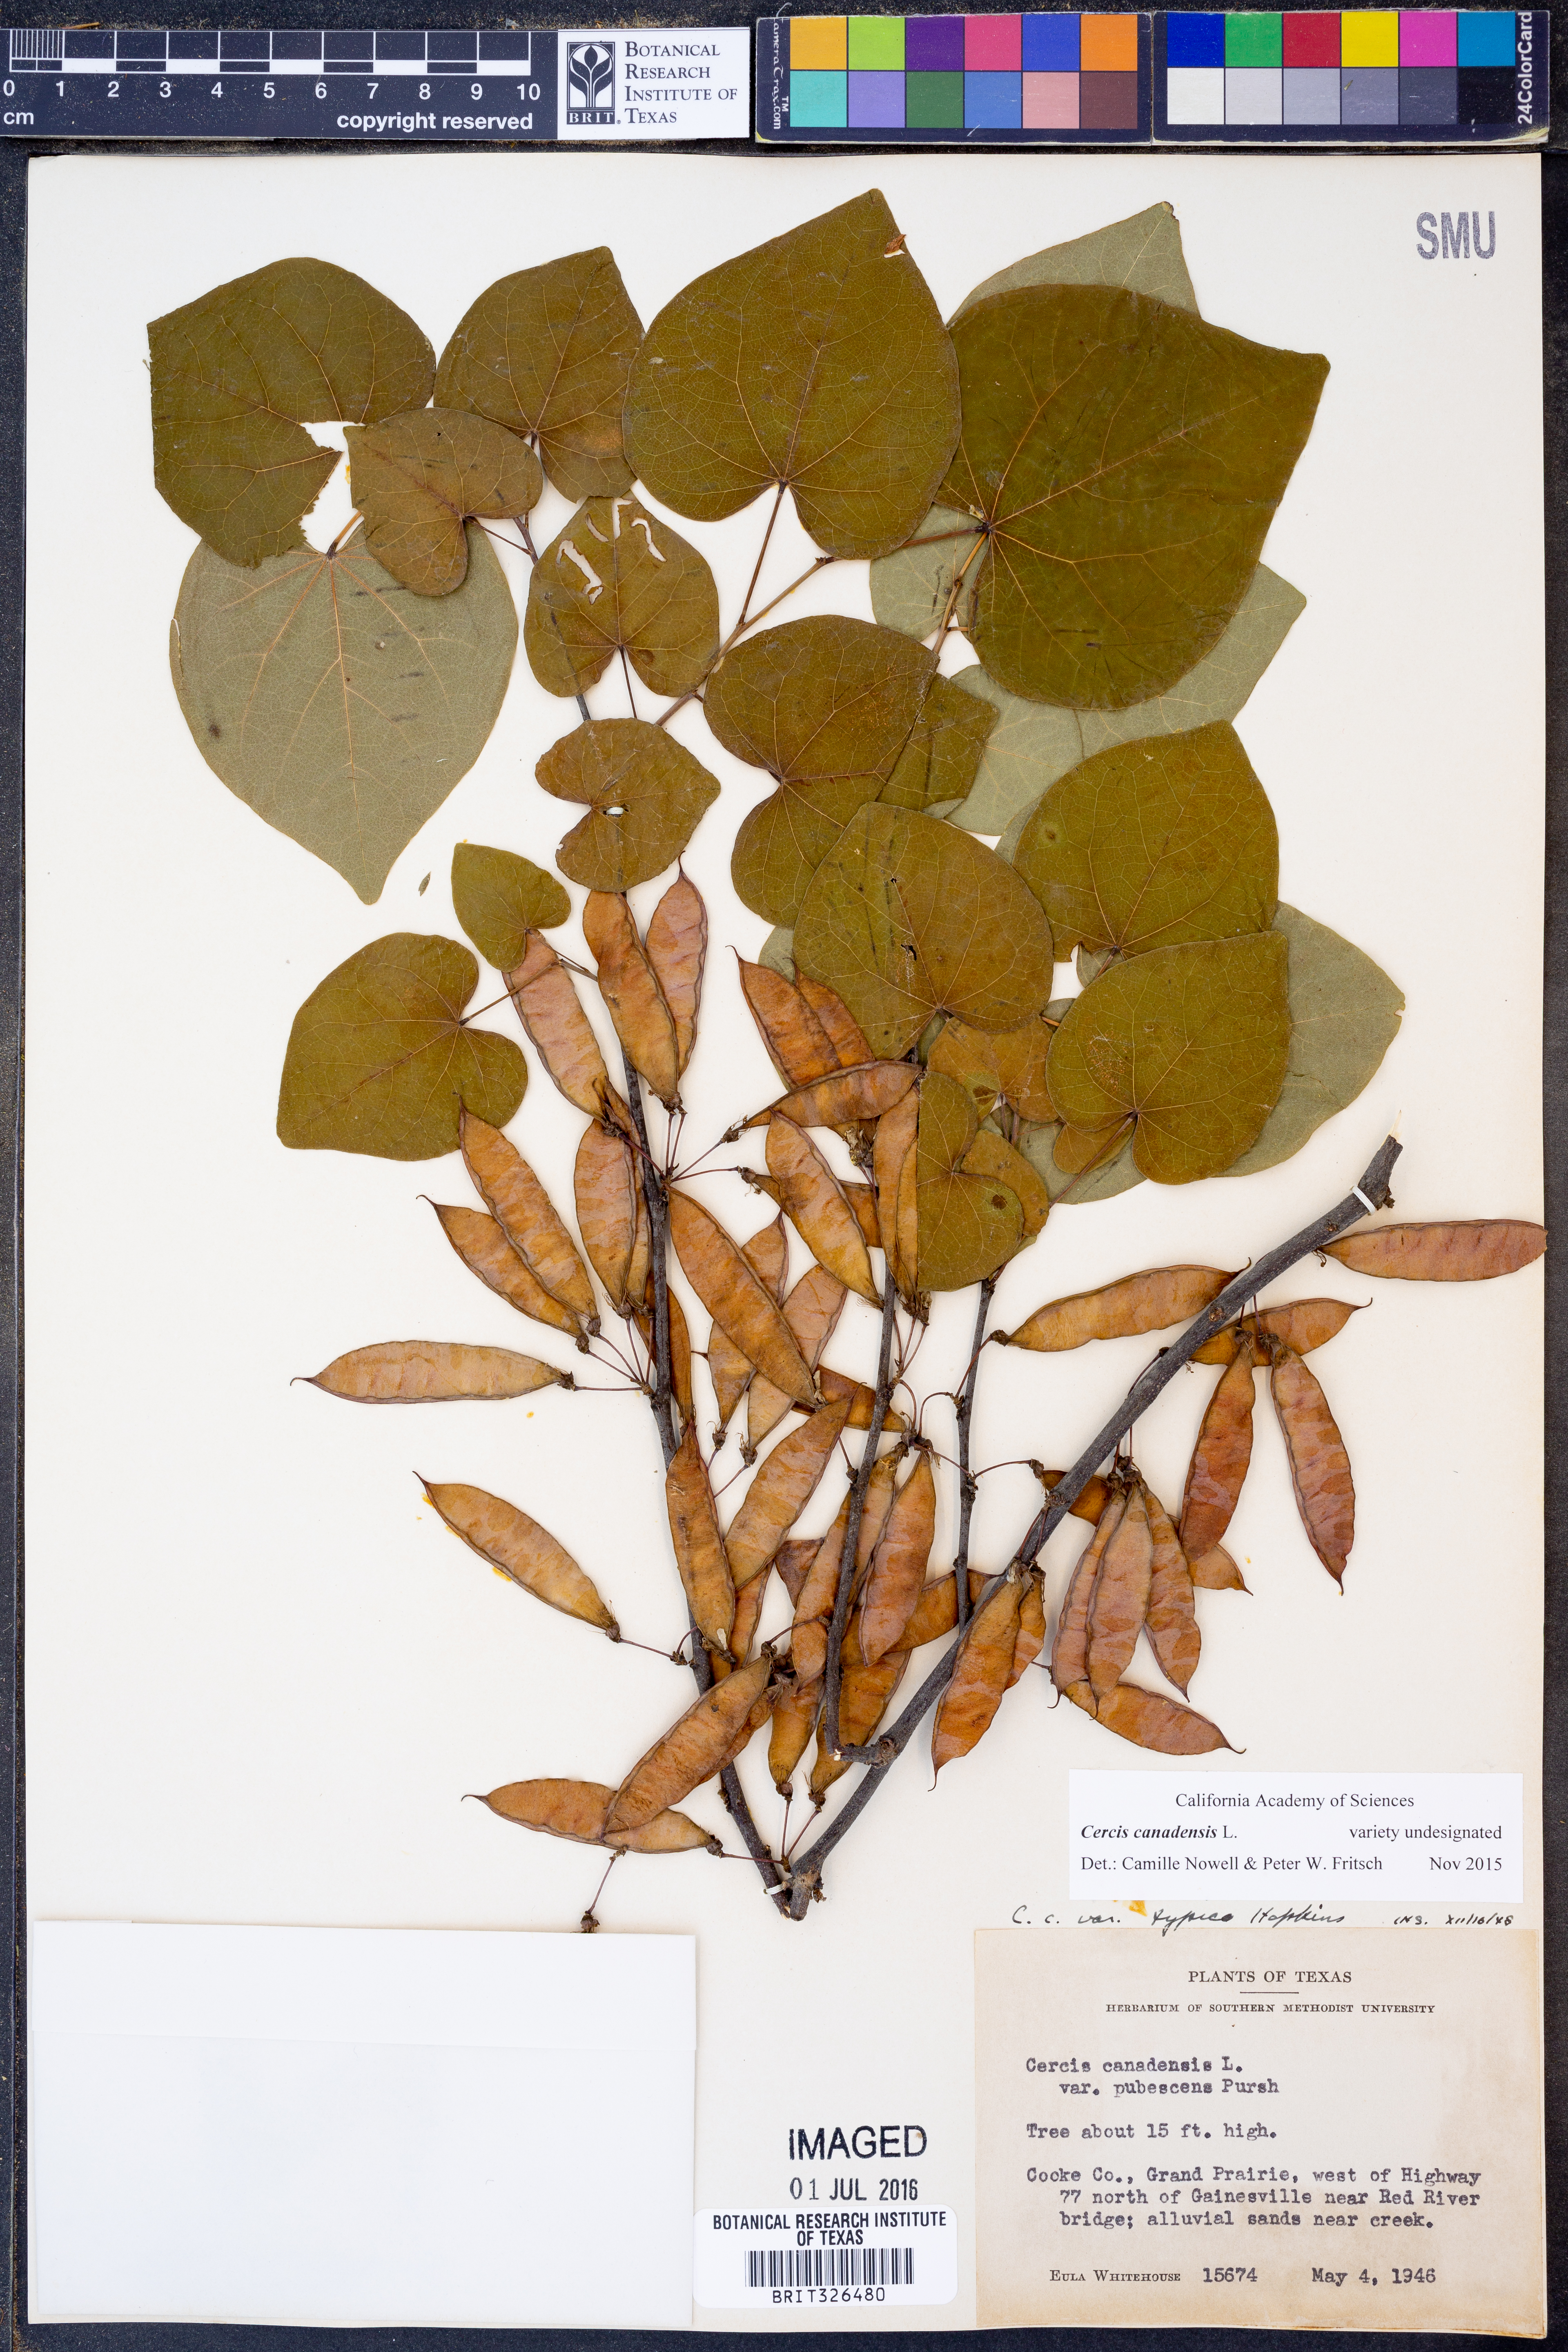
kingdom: Plantae
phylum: Tracheophyta
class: Magnoliopsida
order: Fabales
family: Fabaceae
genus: Cercis
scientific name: Cercis canadensis
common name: Eastern redbud
